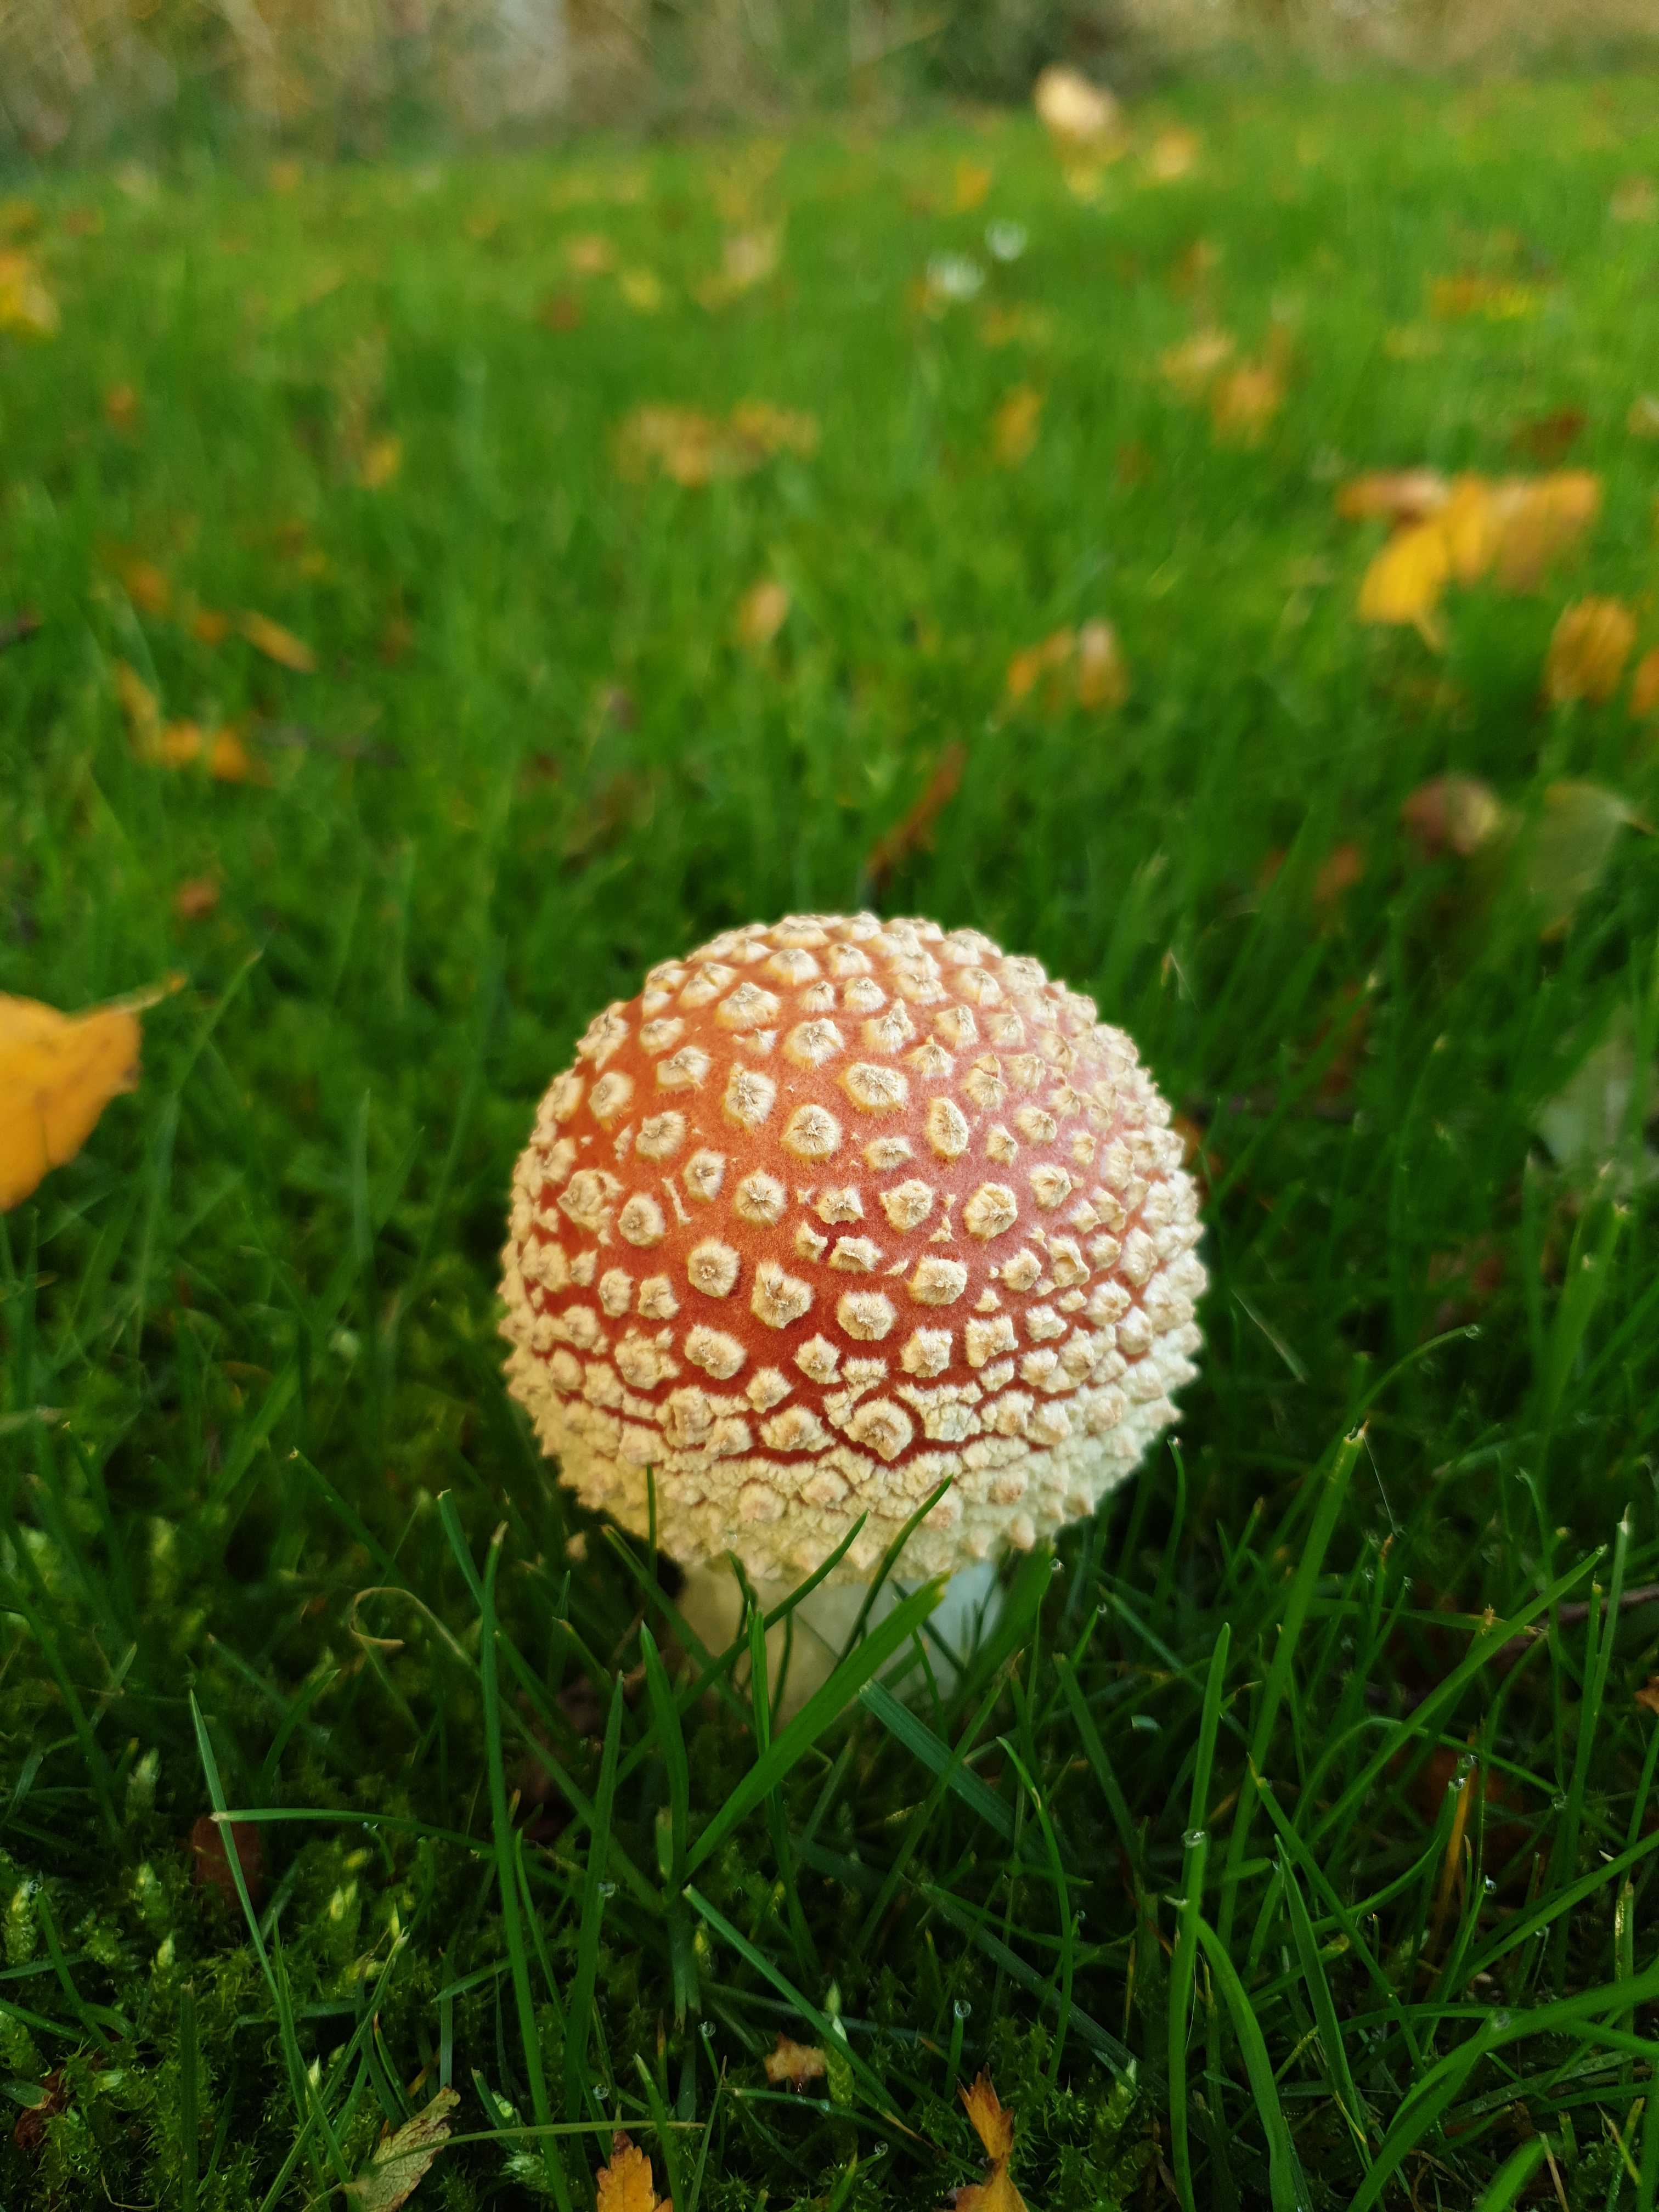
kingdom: Fungi
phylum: Basidiomycota
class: Agaricomycetes
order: Agaricales
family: Amanitaceae
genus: Amanita
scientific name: Amanita muscaria
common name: rød fluesvamp
